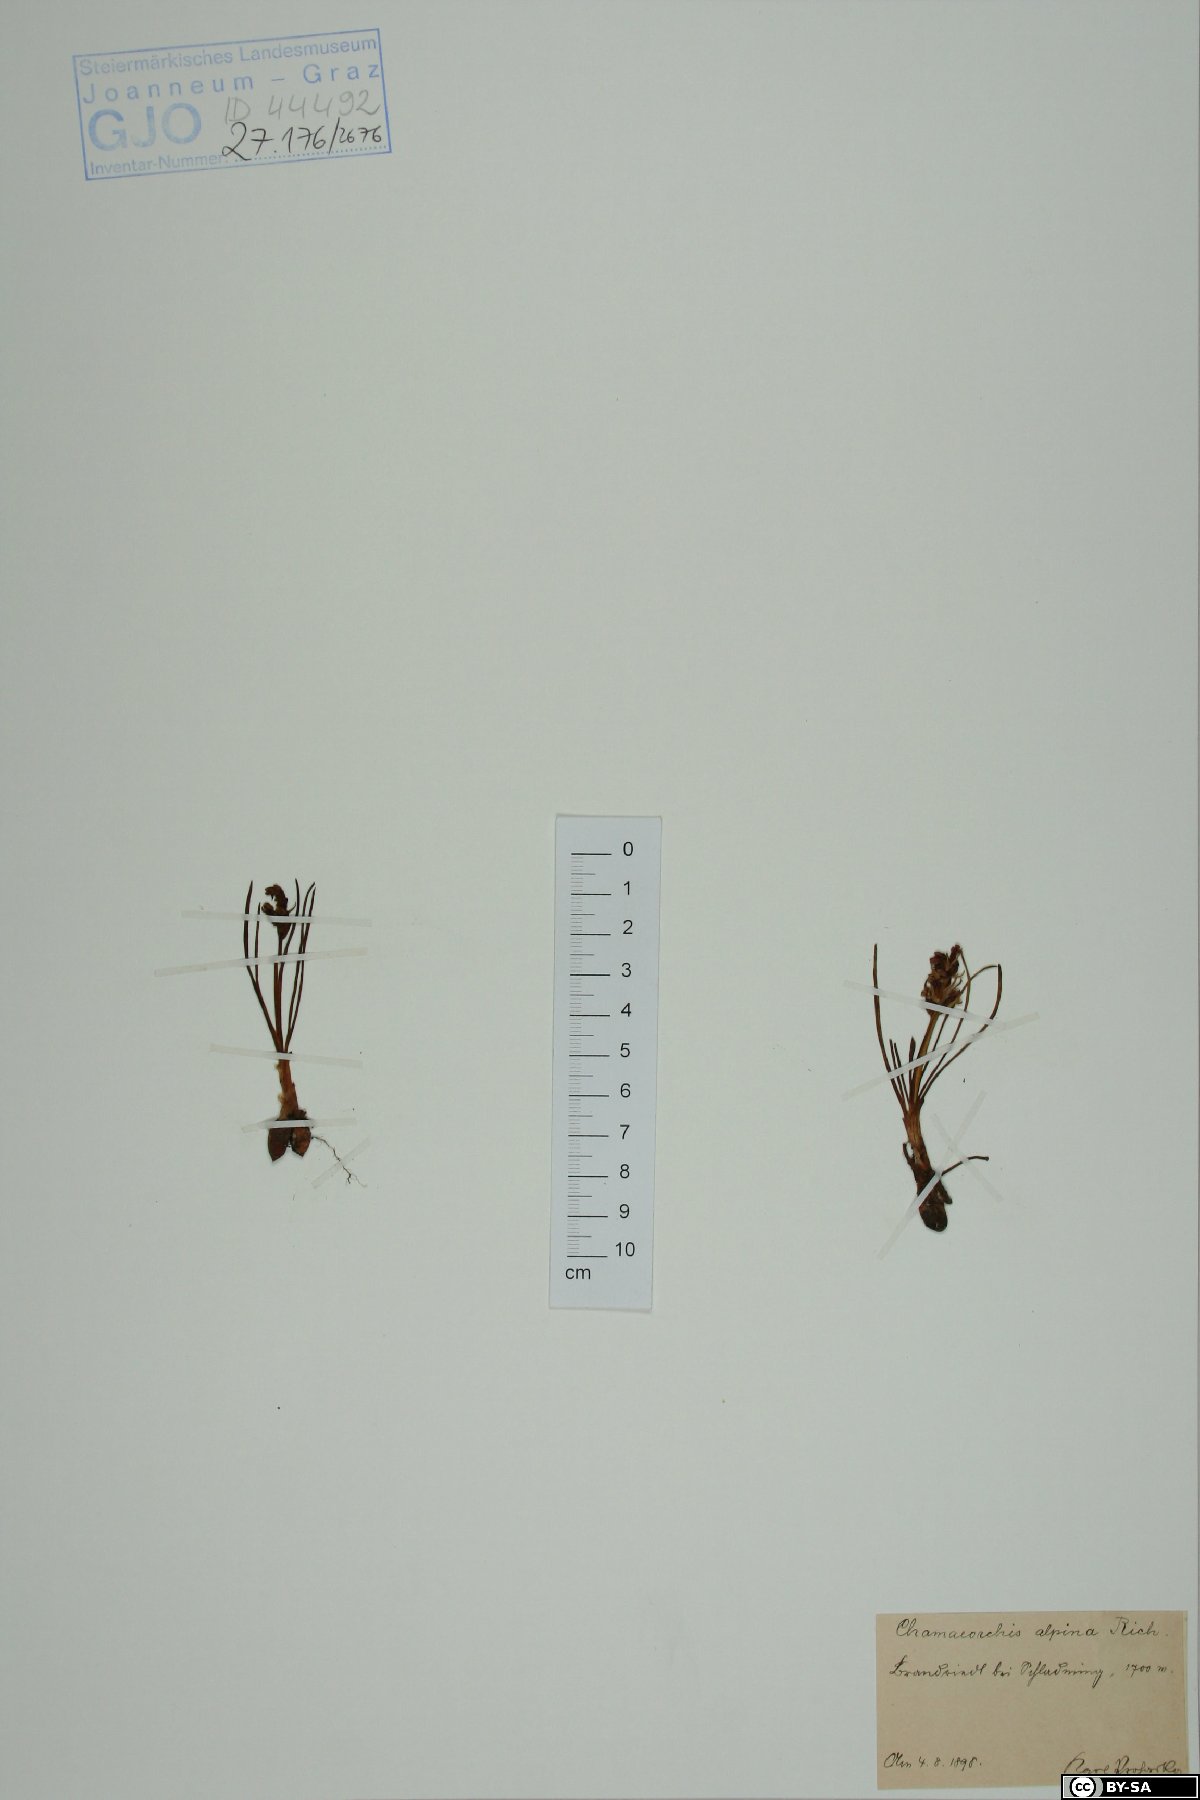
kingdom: Plantae
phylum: Tracheophyta
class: Liliopsida
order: Asparagales
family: Orchidaceae
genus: Chamorchis
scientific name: Chamorchis alpina
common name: Alpine chamorchis
